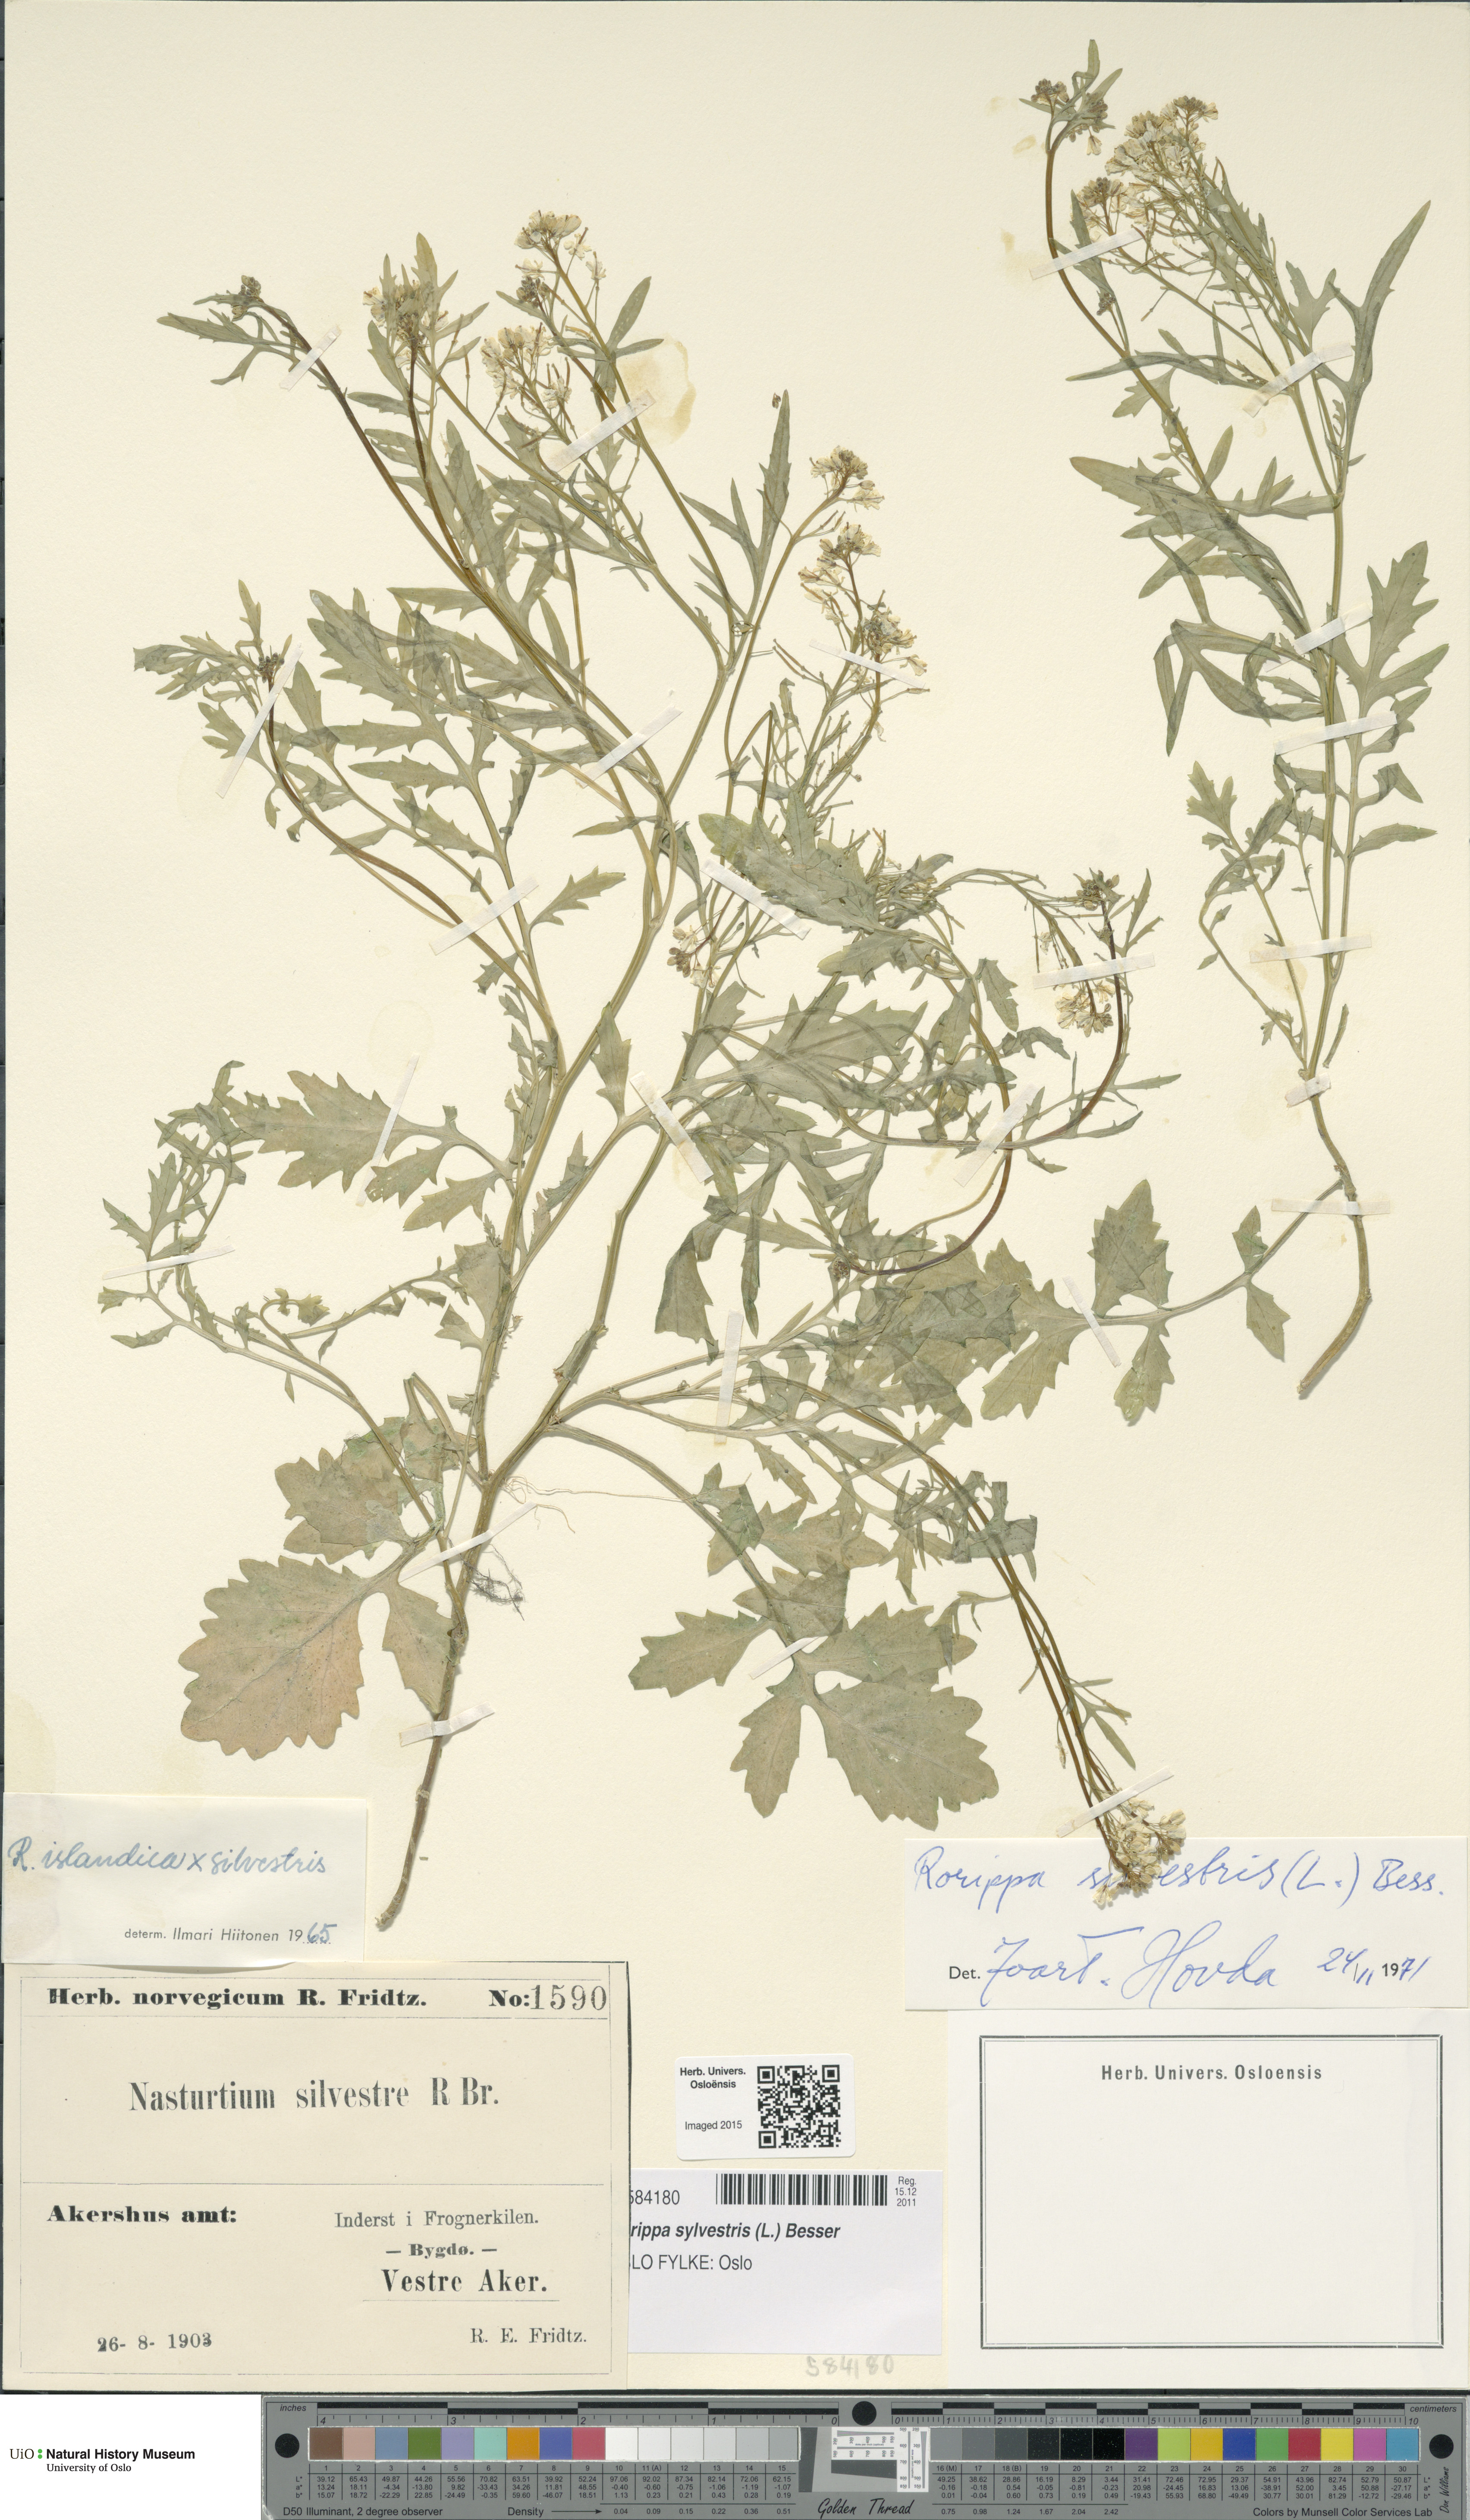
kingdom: Plantae
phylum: Tracheophyta
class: Magnoliopsida
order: Brassicales
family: Brassicaceae
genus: Rorippa
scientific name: Rorippa sylvestris
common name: Creeping yellowcress
